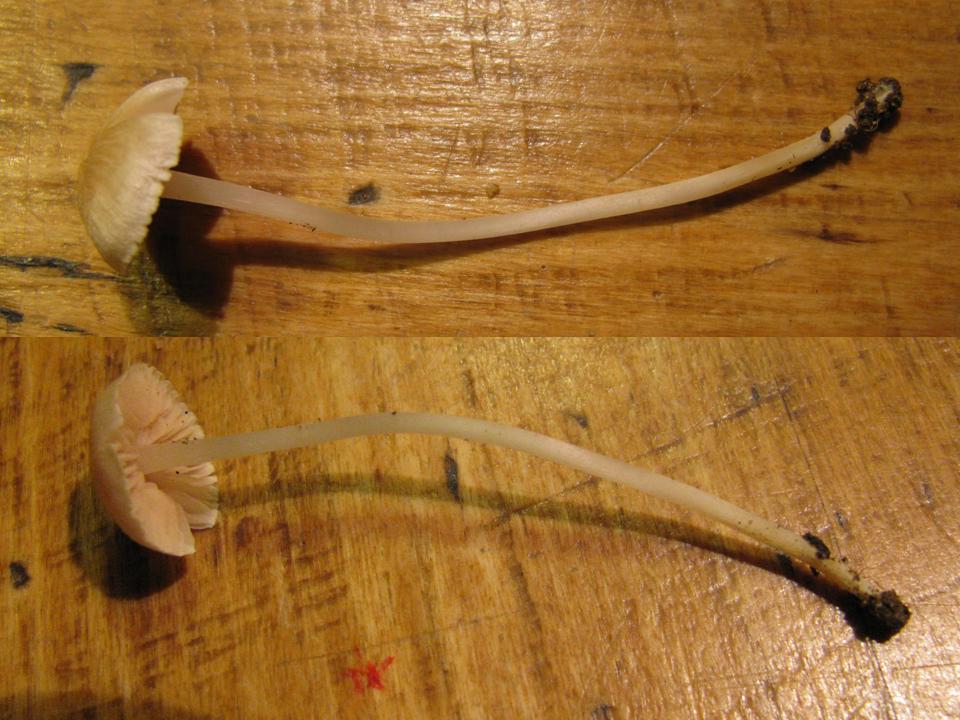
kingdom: Fungi
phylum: Basidiomycota
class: Agaricomycetes
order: Agaricales
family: Entolomataceae
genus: Entoloma
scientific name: Entoloma sericellum
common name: silkehvid rødblad
